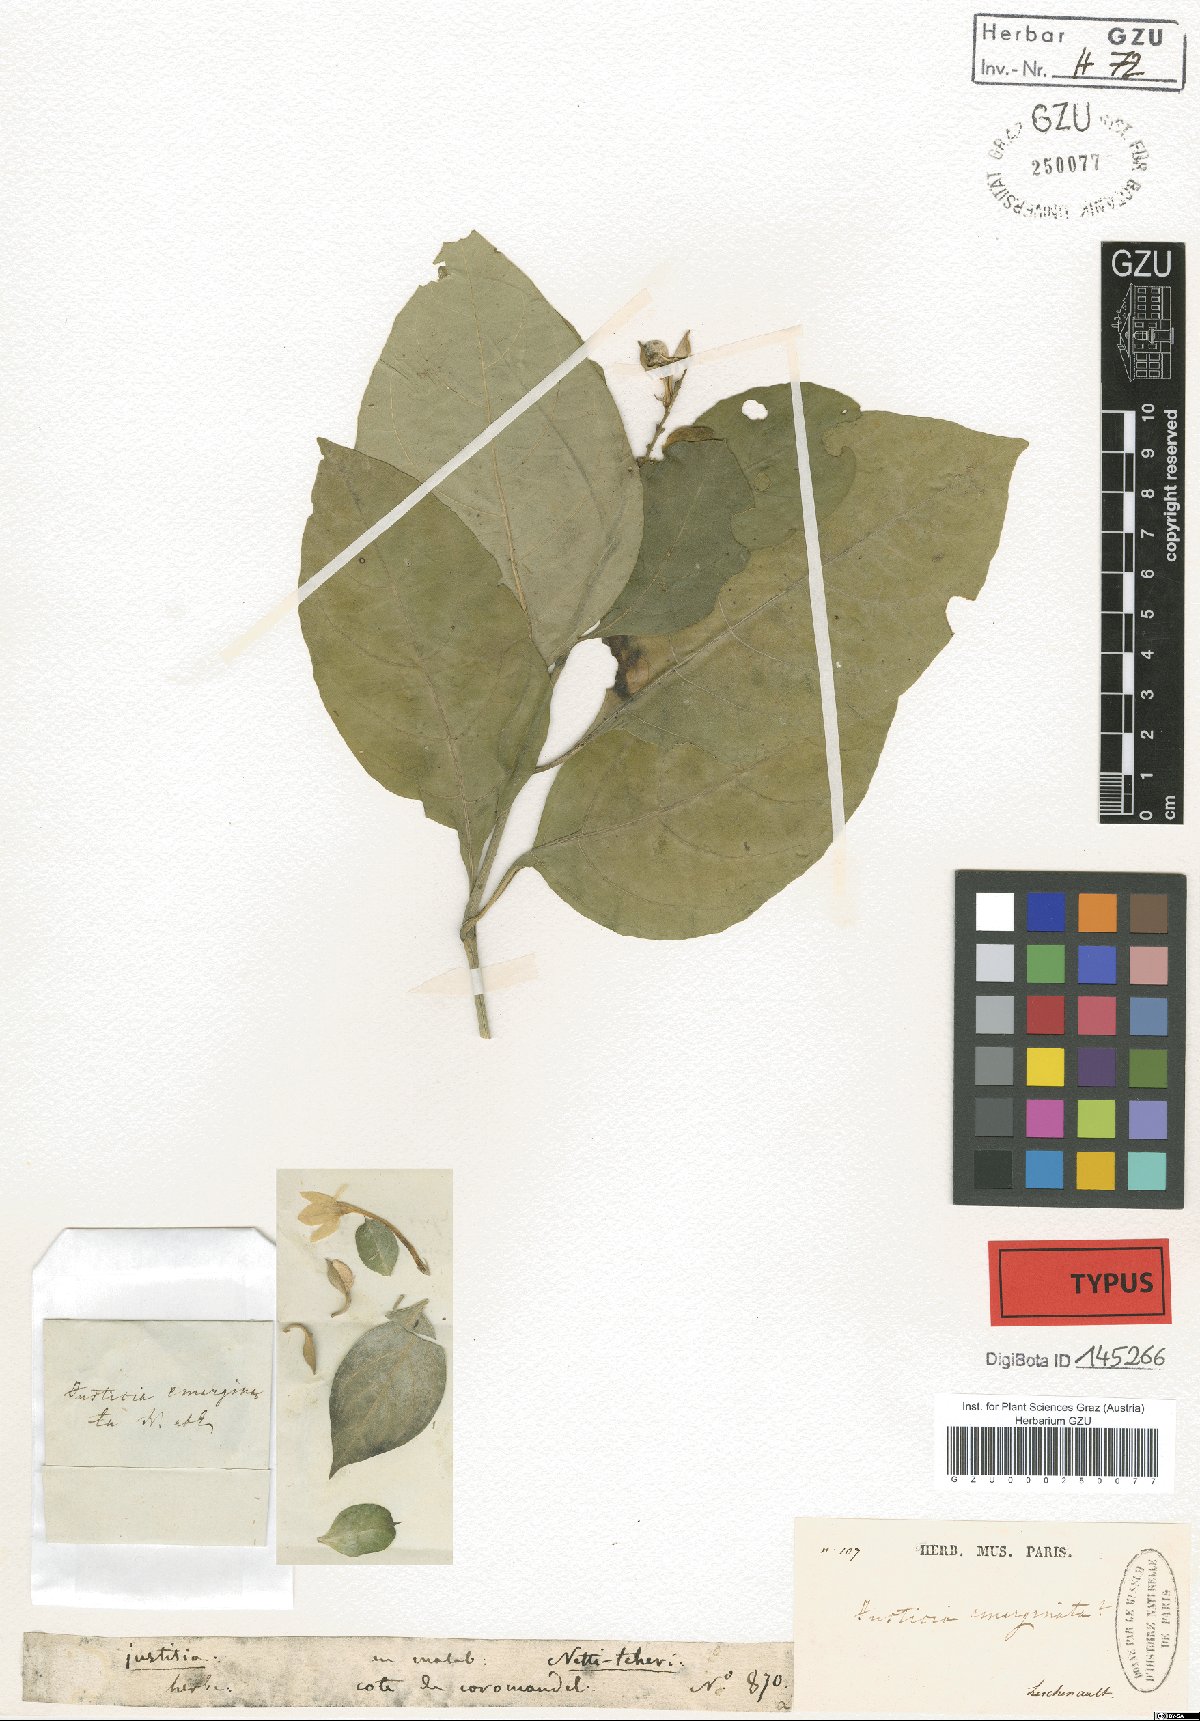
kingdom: Plantae
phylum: Tracheophyta
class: Magnoliopsida
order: Lamiales
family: Acanthaceae
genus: Ecbolium
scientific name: Ecbolium ligustrinum
